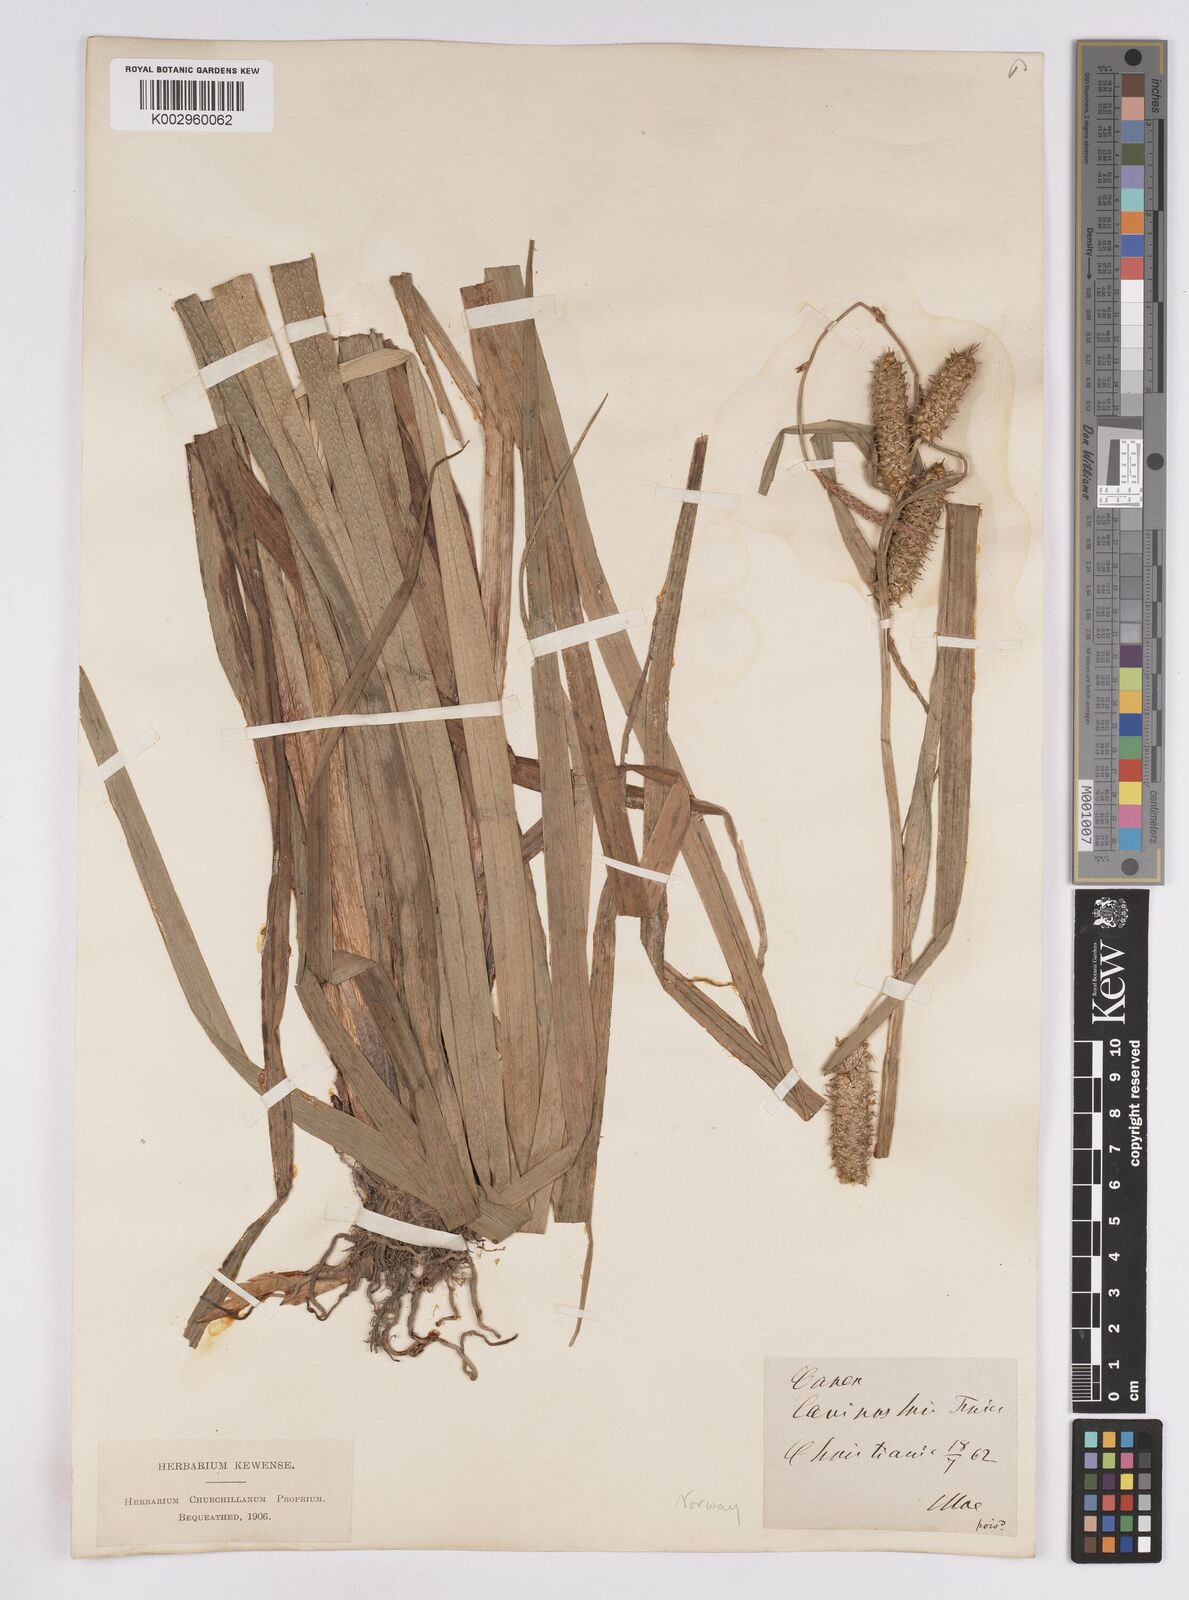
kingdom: Plantae
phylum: Tracheophyta
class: Liliopsida
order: Poales
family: Cyperaceae
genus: Carex
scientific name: Carex utriculata
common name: Beaked sedge
